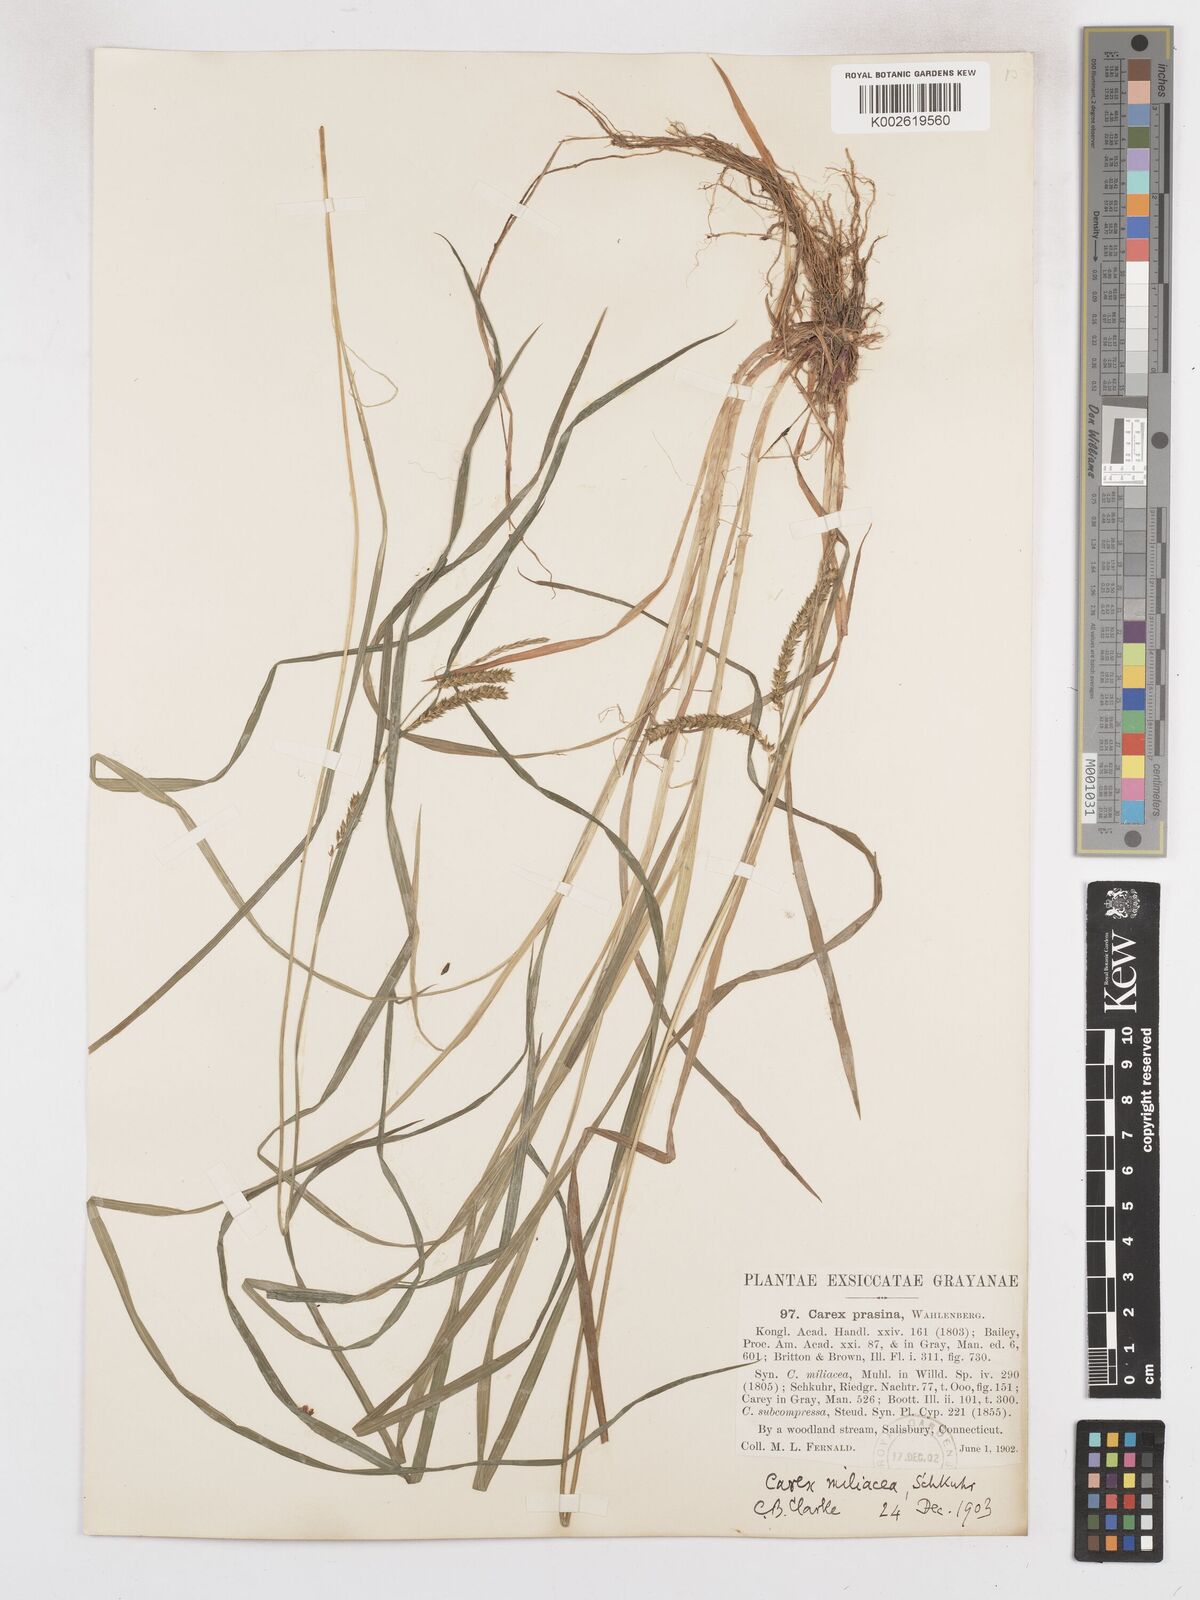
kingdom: Plantae
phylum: Tracheophyta
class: Liliopsida
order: Poales
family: Cyperaceae
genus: Carex
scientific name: Carex prasina
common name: Drooping sedge
